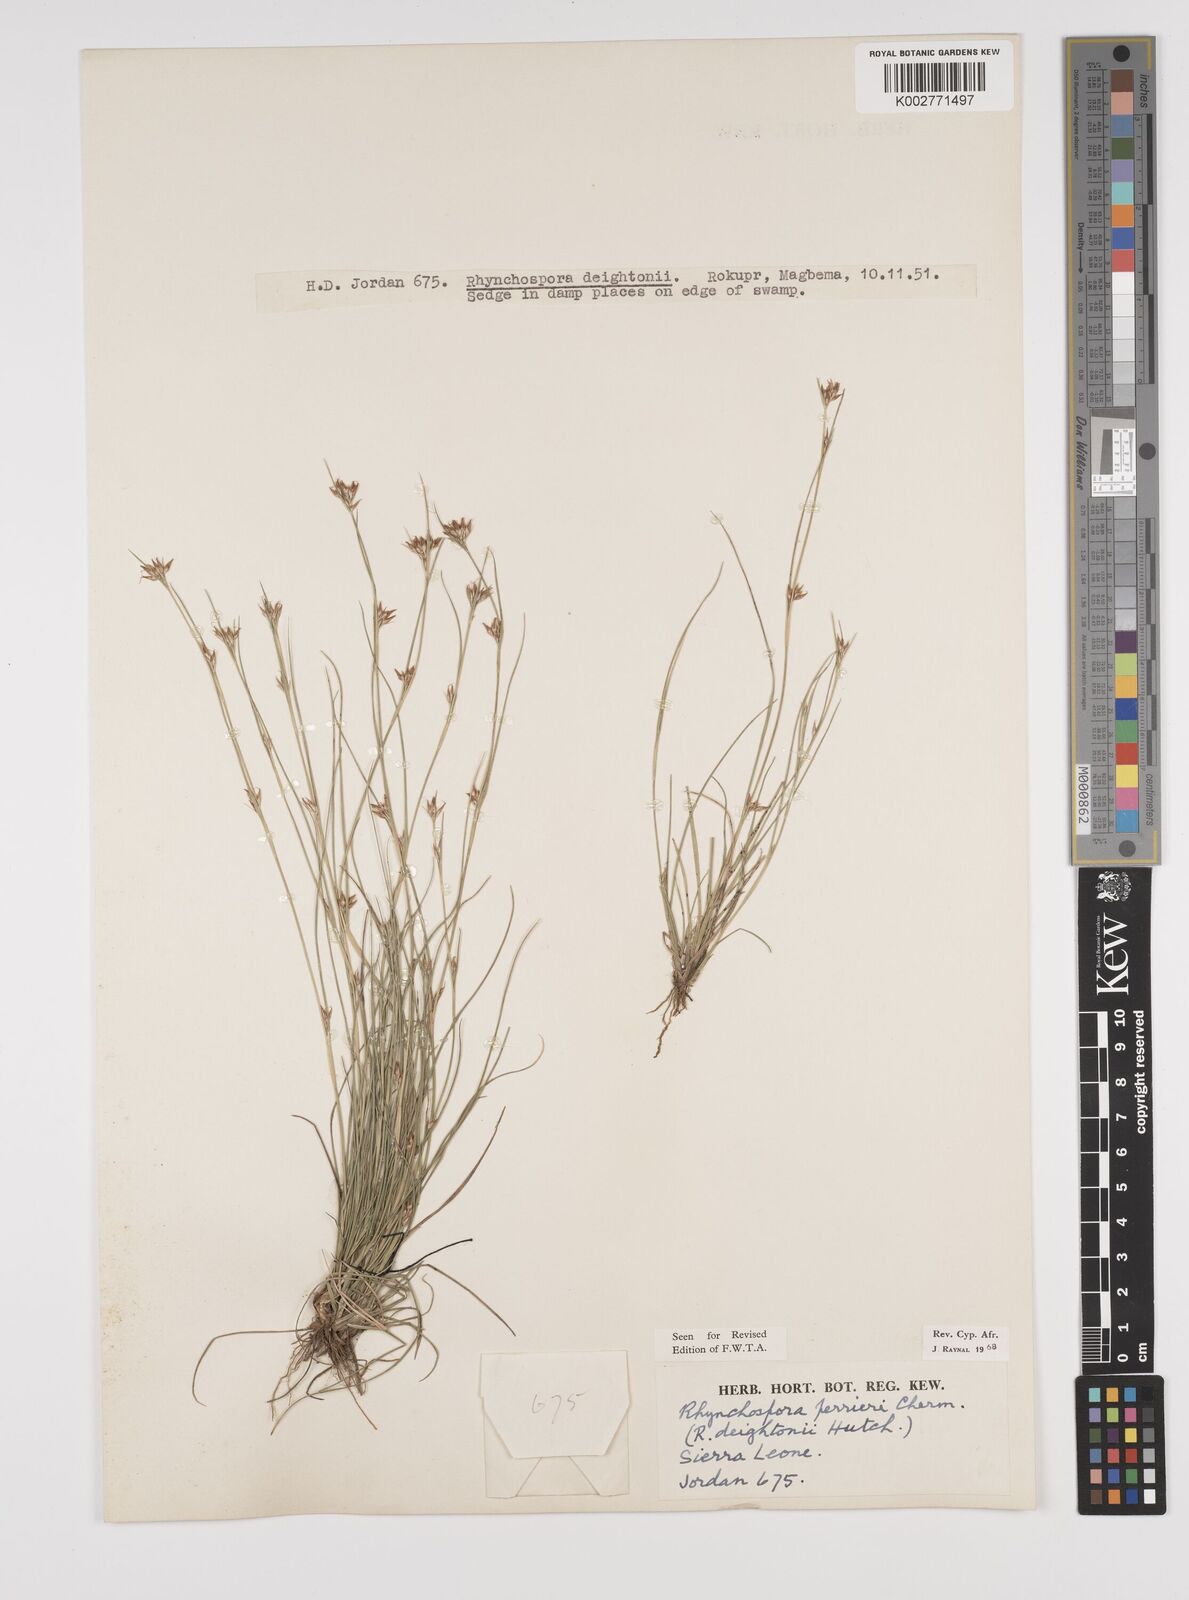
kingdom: Plantae
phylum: Tracheophyta
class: Liliopsida
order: Poales
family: Cyperaceae
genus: Rhynchospora
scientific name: Rhynchospora perrieri
